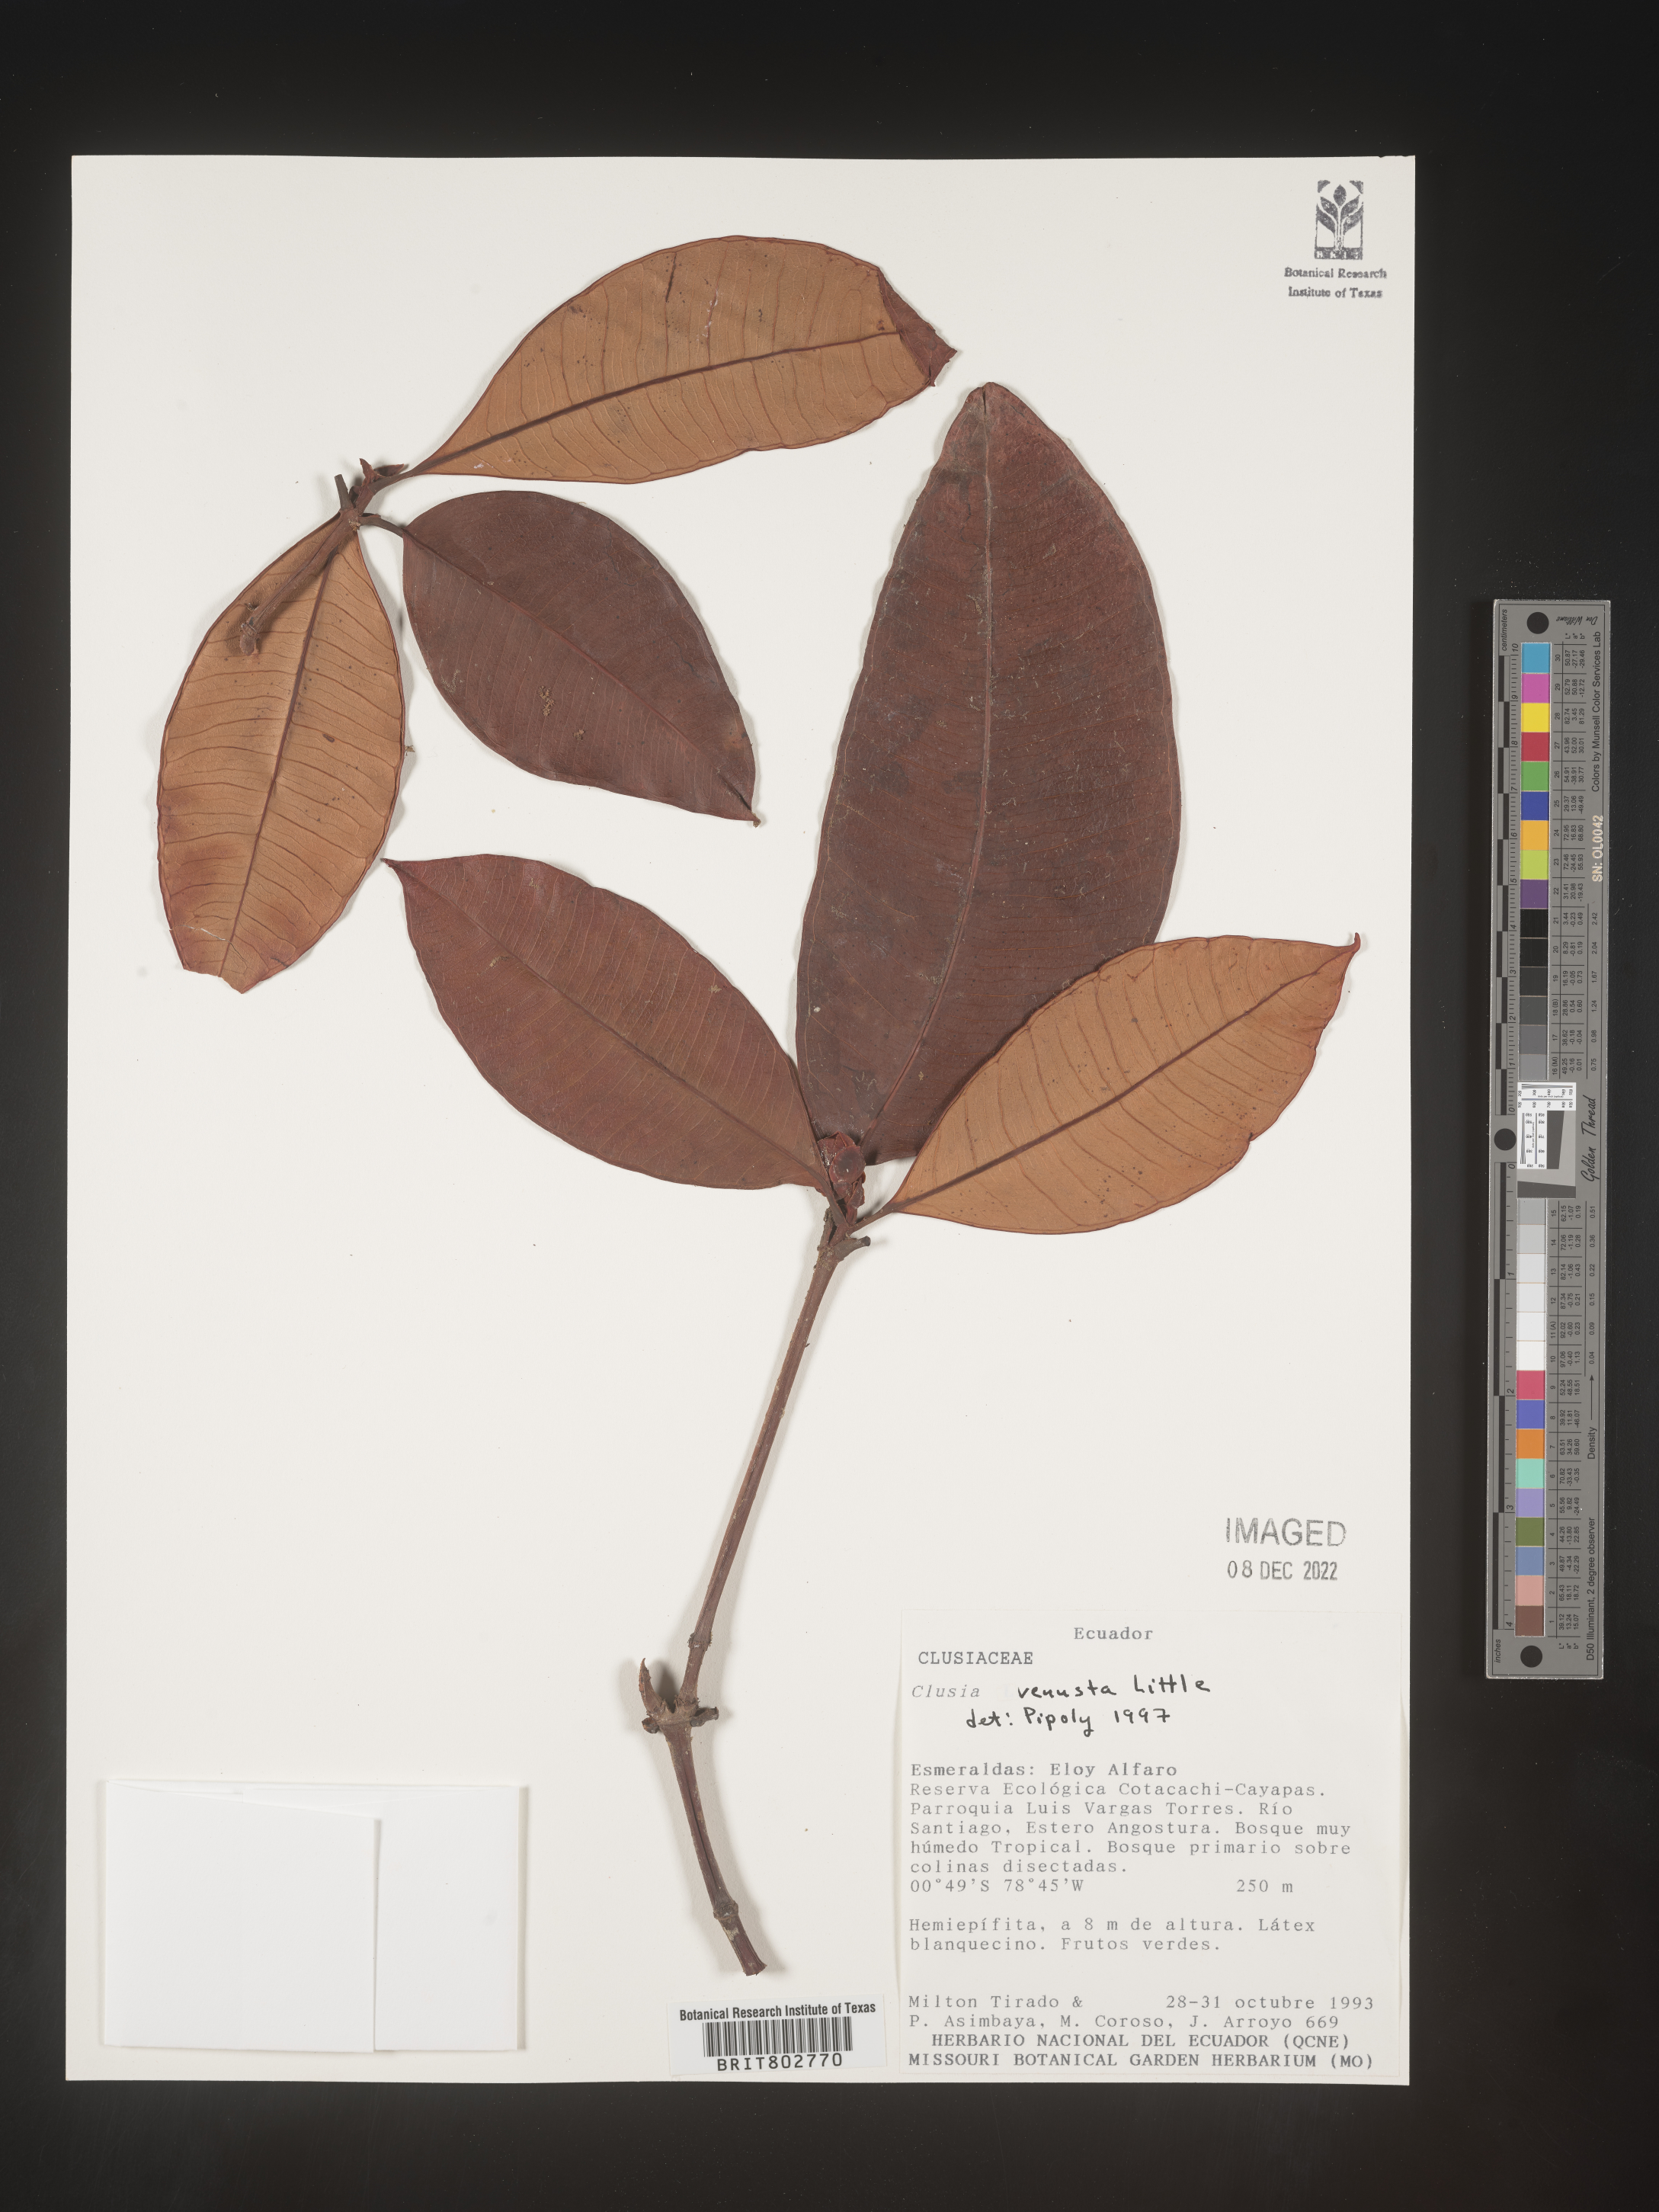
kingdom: Plantae
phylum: Tracheophyta
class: Magnoliopsida
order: Malpighiales
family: Clusiaceae
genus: Clusia
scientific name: Clusia venusta
